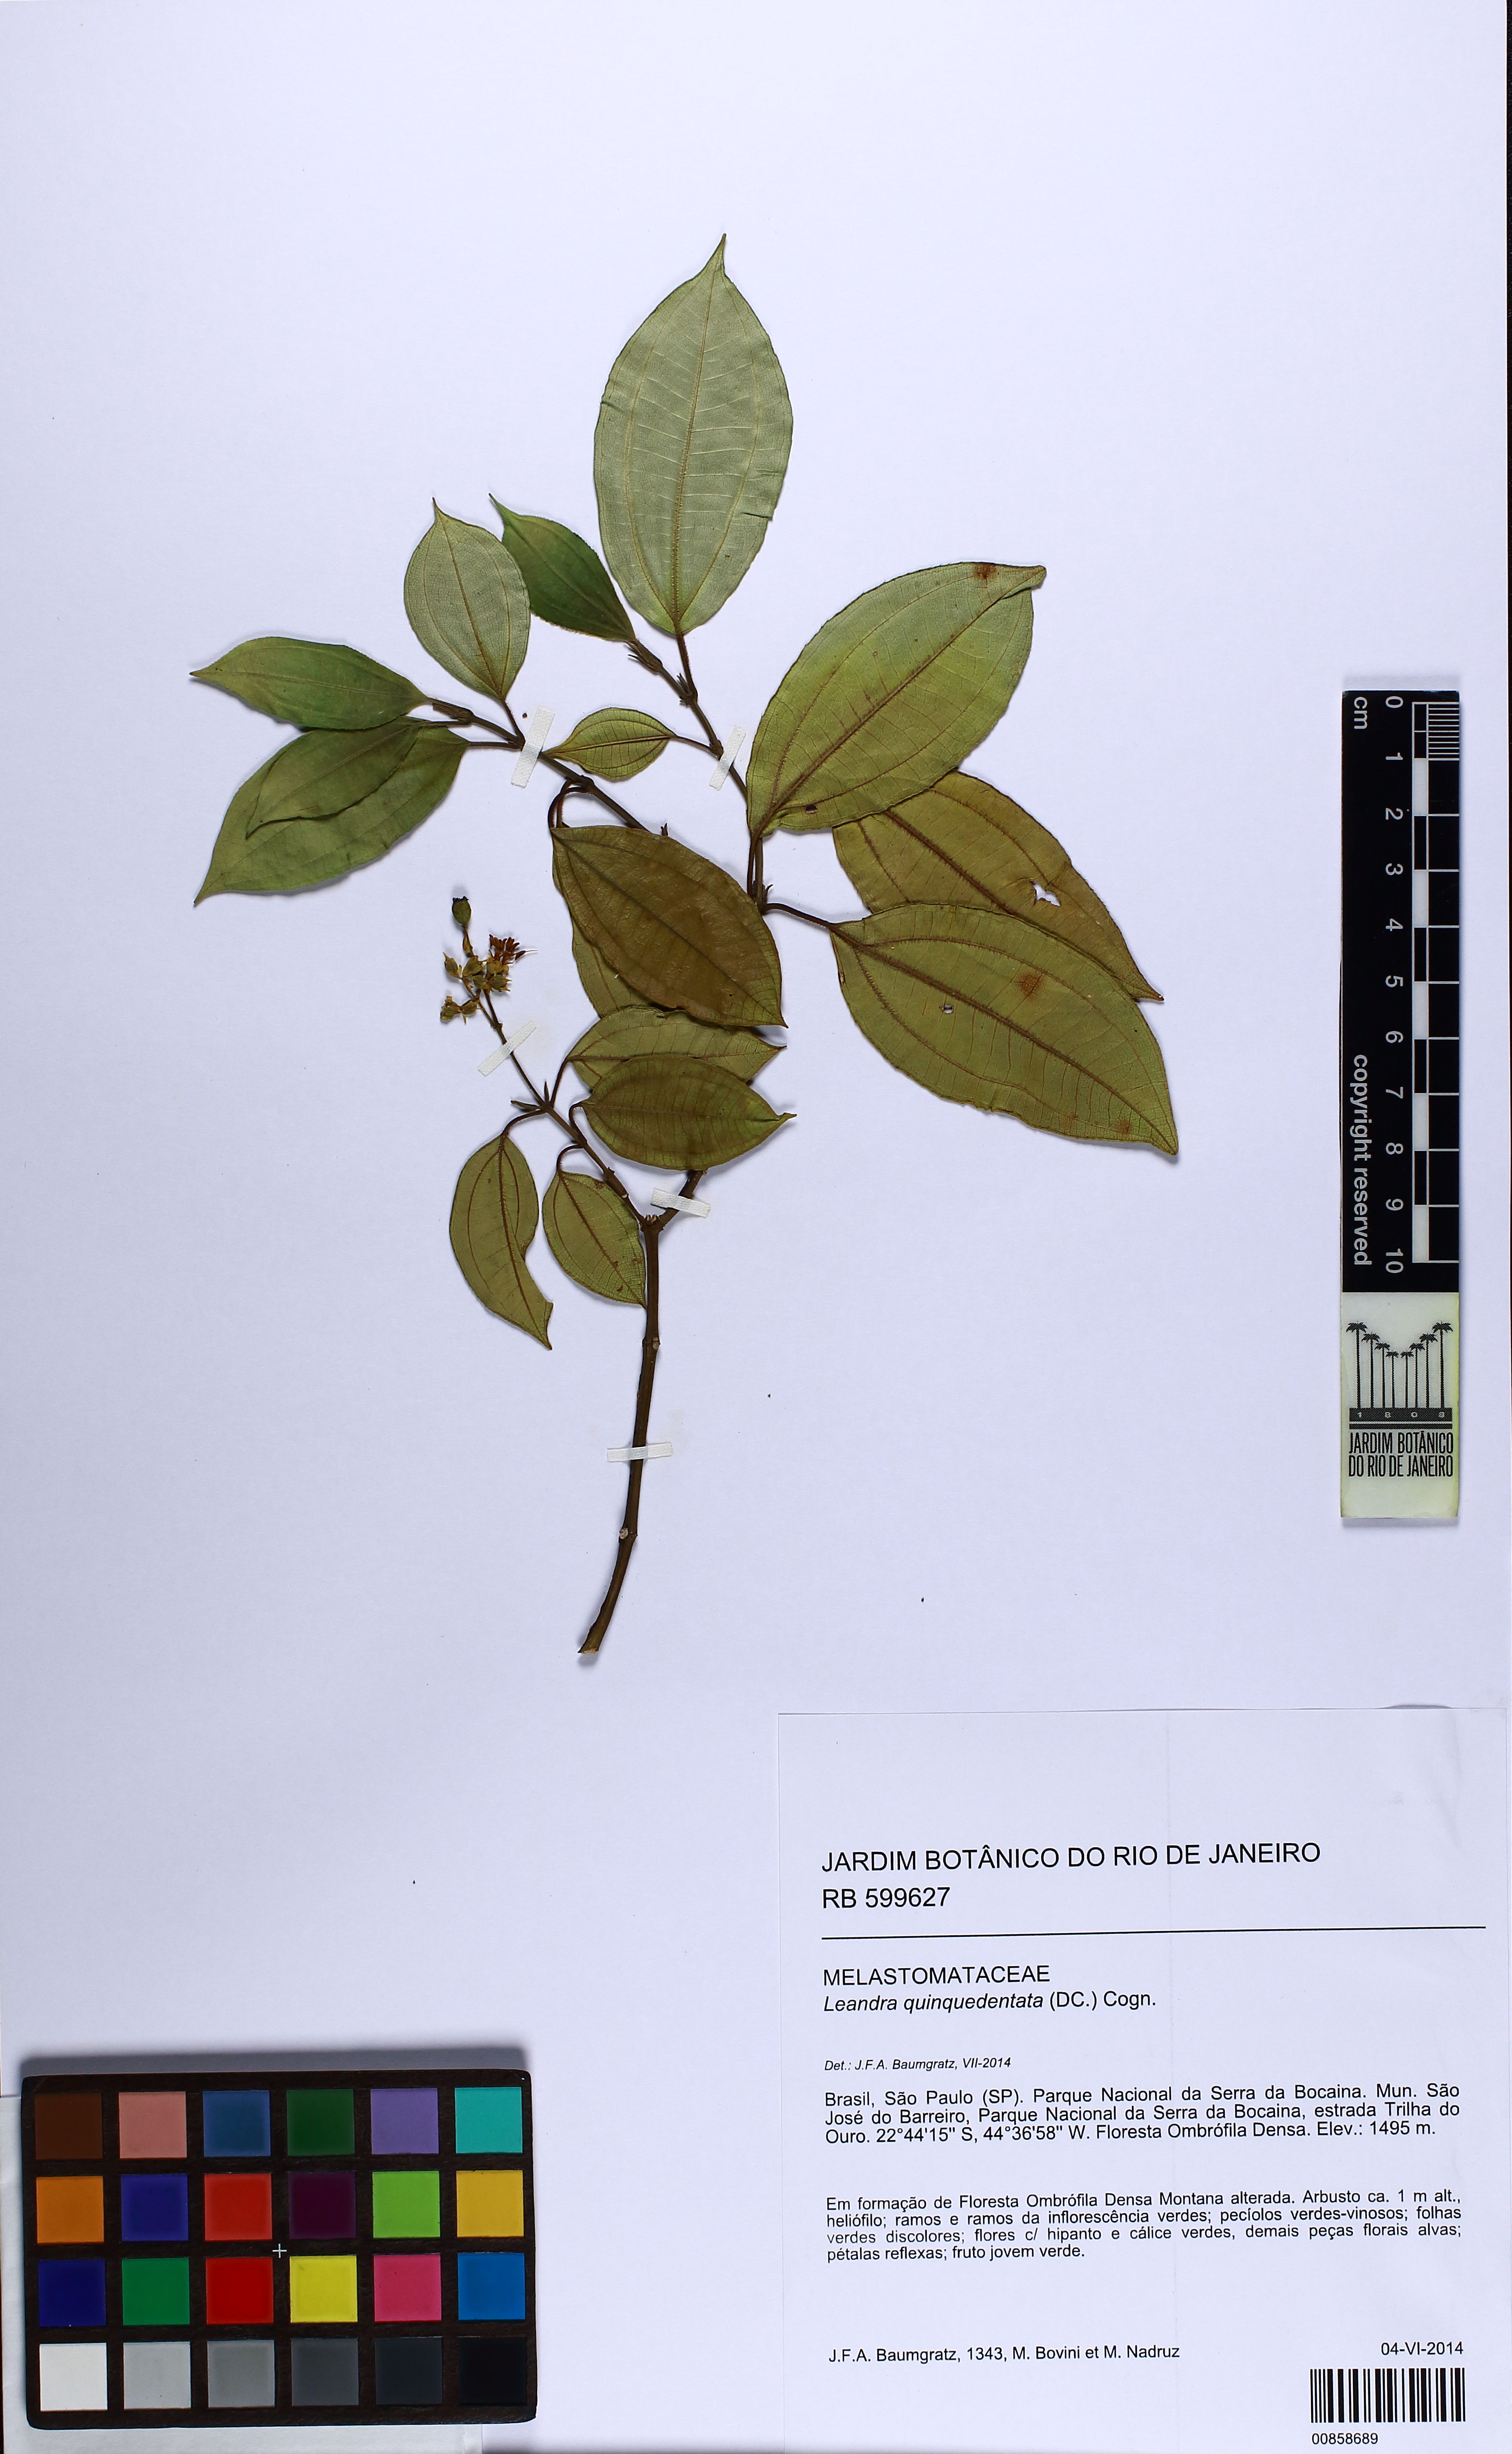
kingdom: Plantae
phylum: Tracheophyta
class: Magnoliopsida
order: Myrtales
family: Melastomataceae
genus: Miconia
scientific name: Miconia quinquedentata
